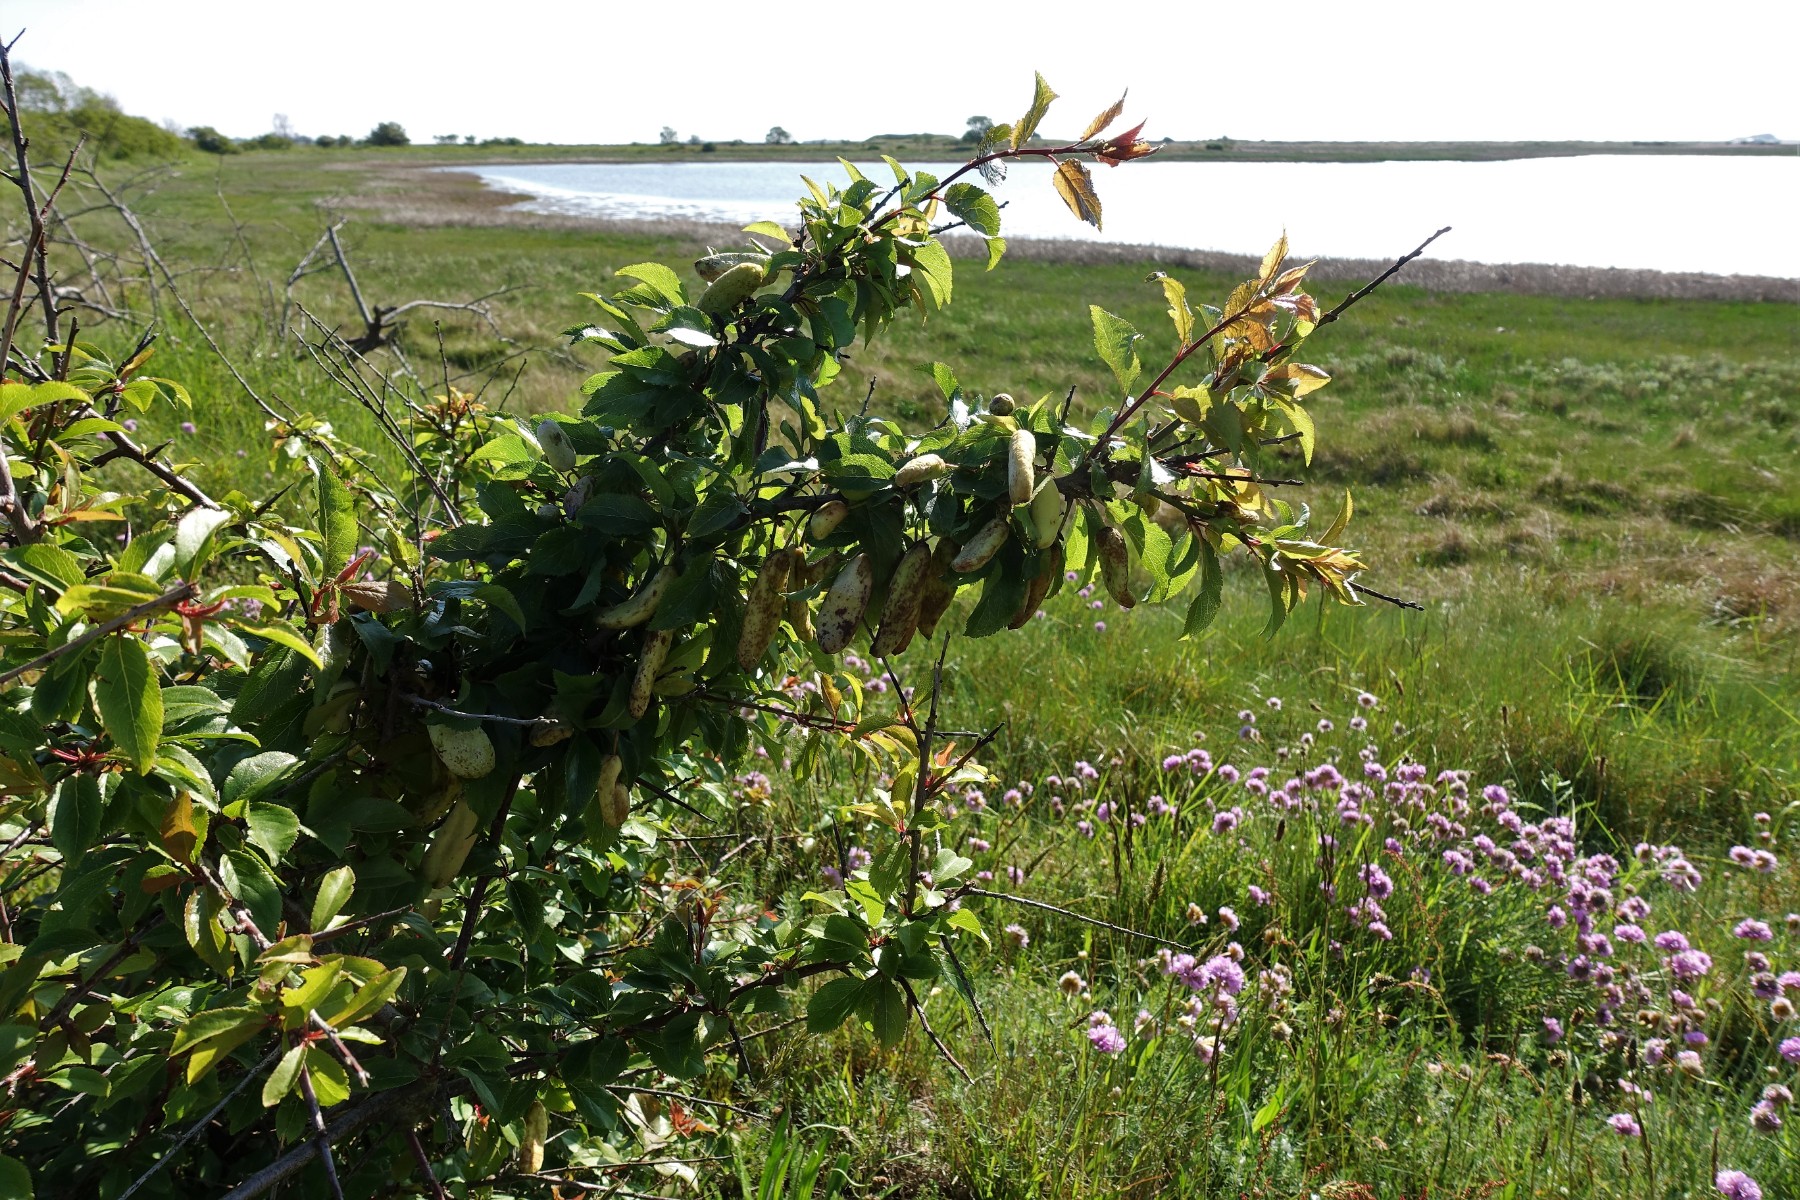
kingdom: Fungi
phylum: Ascomycota
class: Taphrinomycetes
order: Taphrinales
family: Taphrinaceae
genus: Taphrina
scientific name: Taphrina pruni
